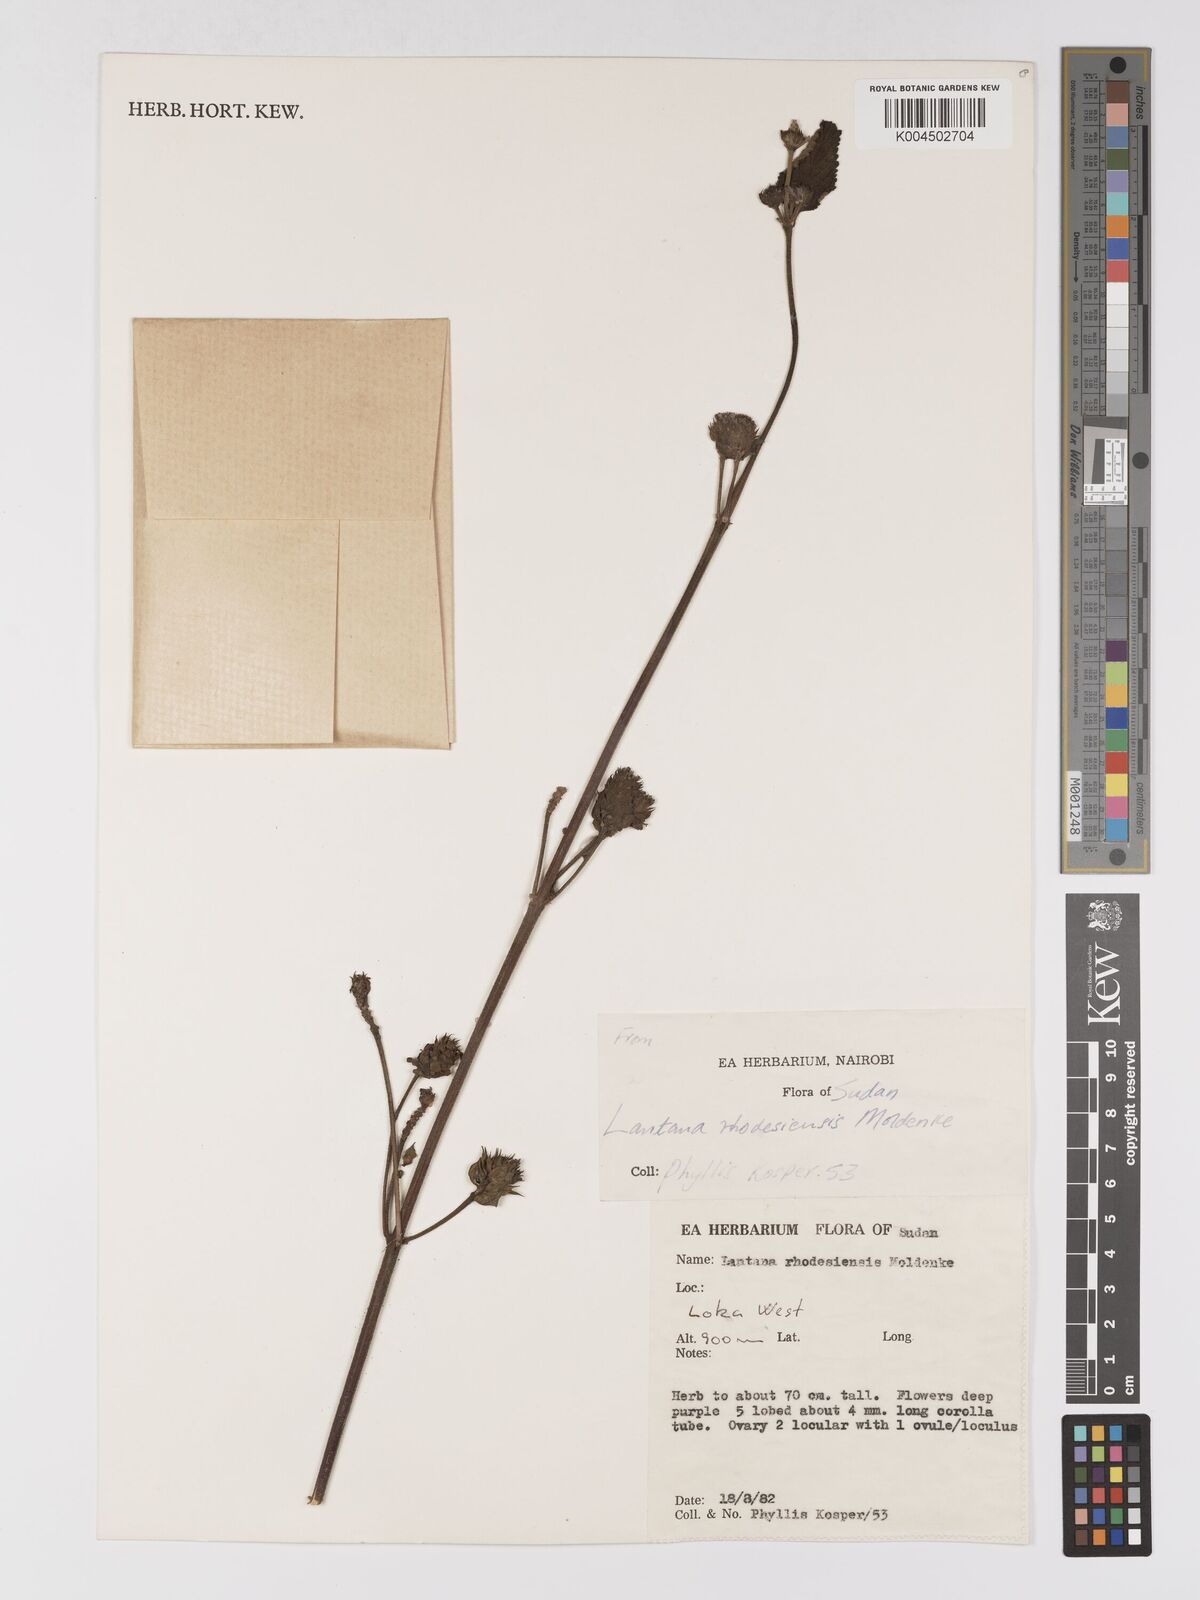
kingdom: Plantae
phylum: Tracheophyta
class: Magnoliopsida
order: Lamiales
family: Verbenaceae
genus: Lantana
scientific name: Lantana ukambensis
